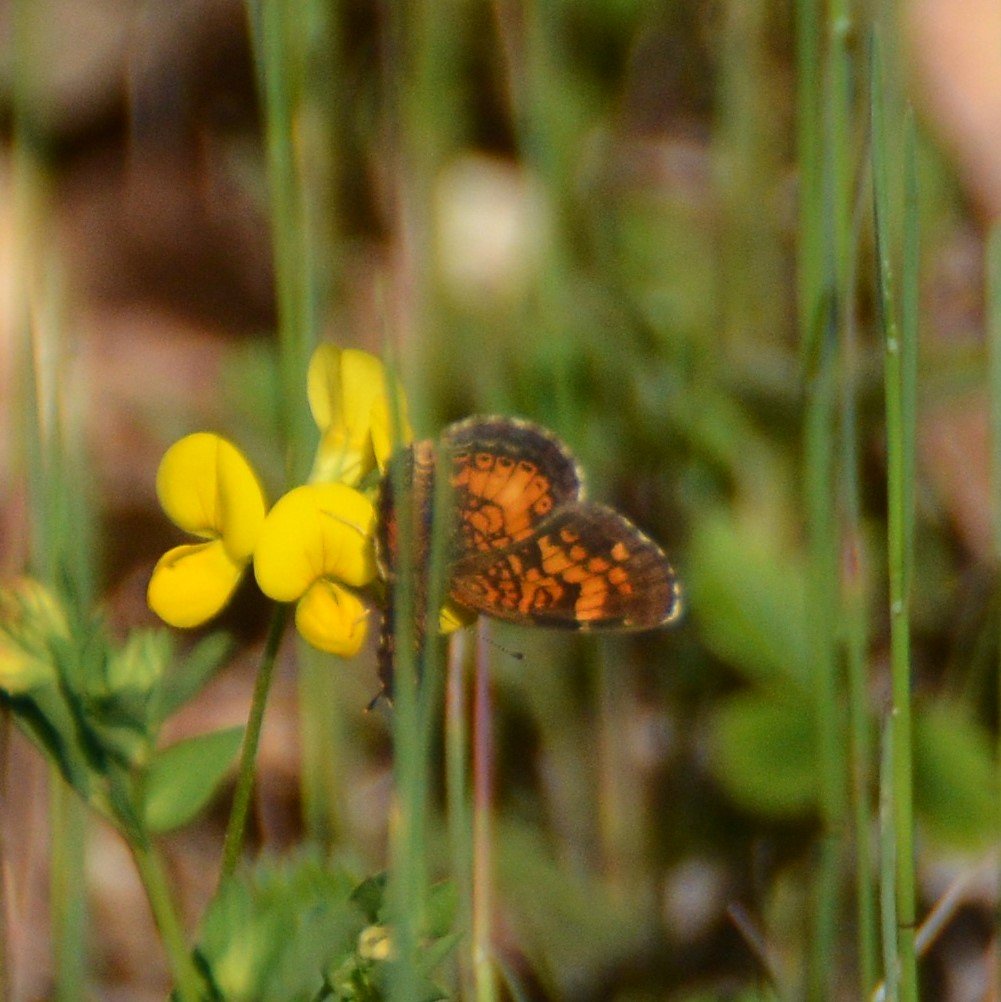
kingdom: Animalia
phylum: Arthropoda
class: Insecta
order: Lepidoptera
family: Nymphalidae
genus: Phyciodes
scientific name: Phyciodes tharos
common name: Northern Crescent
